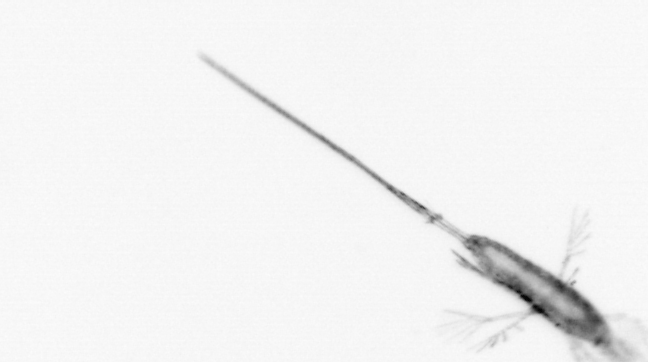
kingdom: Animalia
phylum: Arthropoda
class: Copepoda
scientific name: Copepoda
